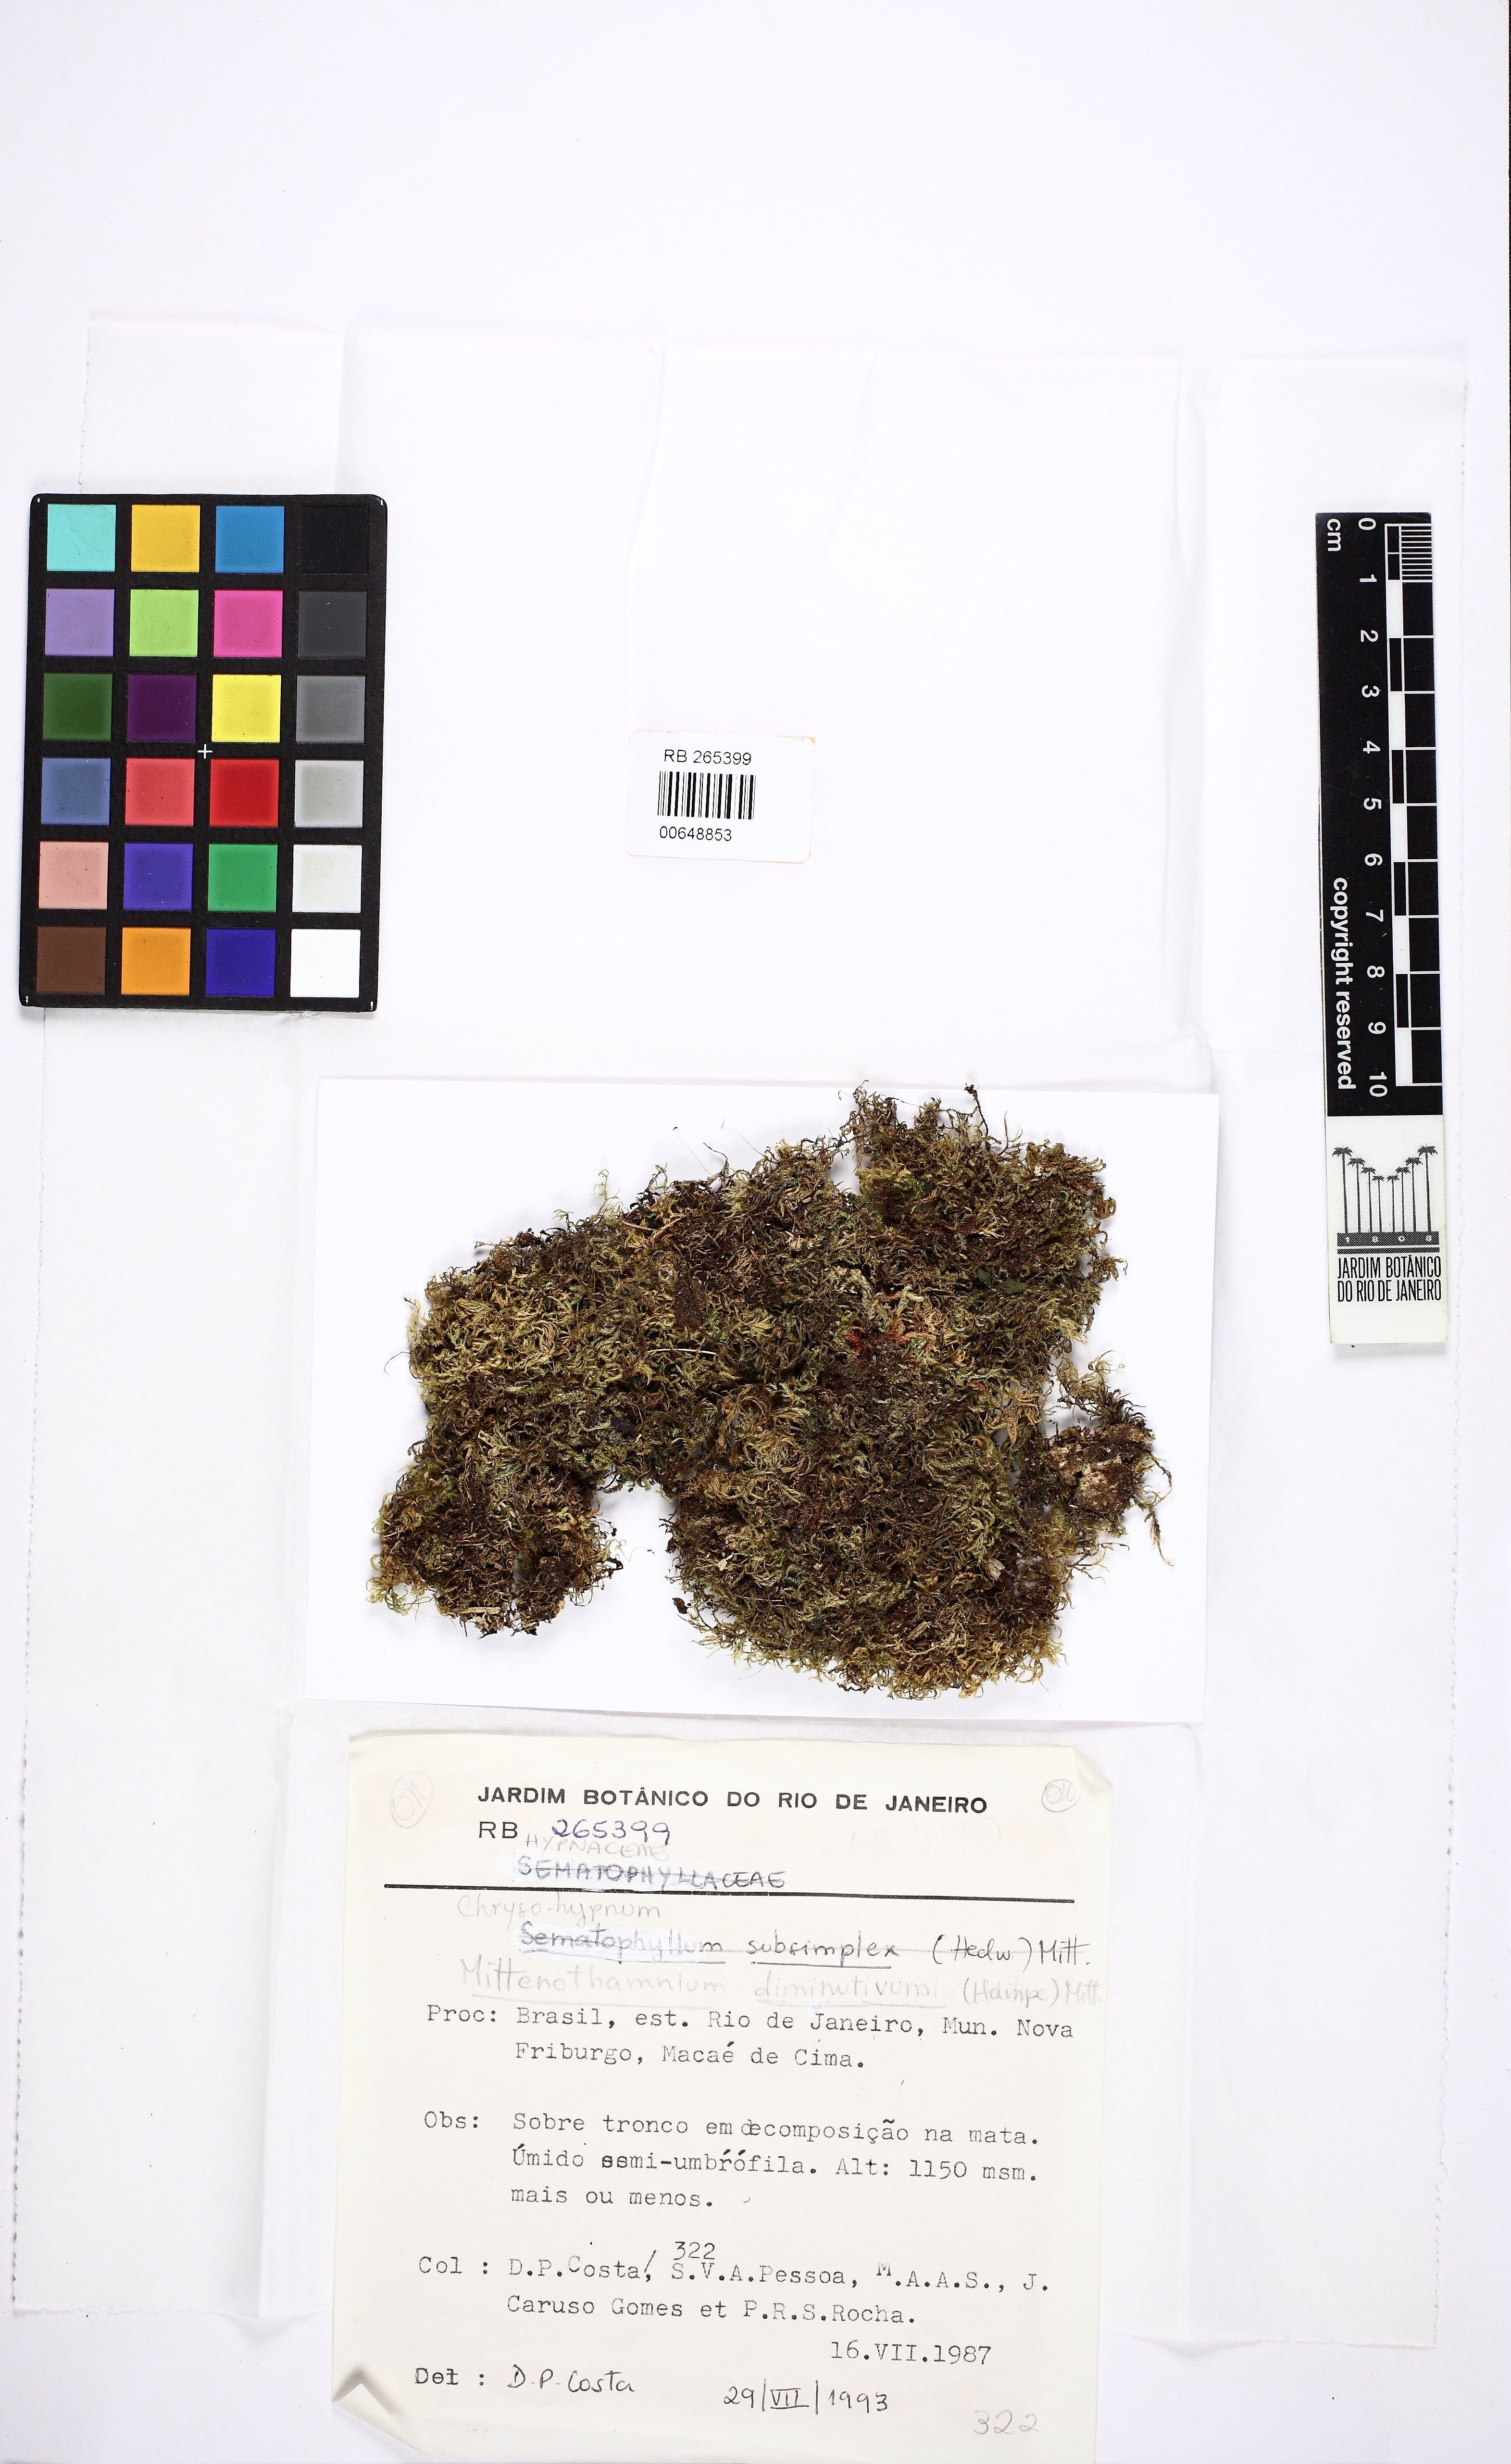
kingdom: Plantae
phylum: Bryophyta
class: Bryopsida
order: Hypnales
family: Hypnaceae
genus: Chryso-hypnum
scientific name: Chryso-hypnum
